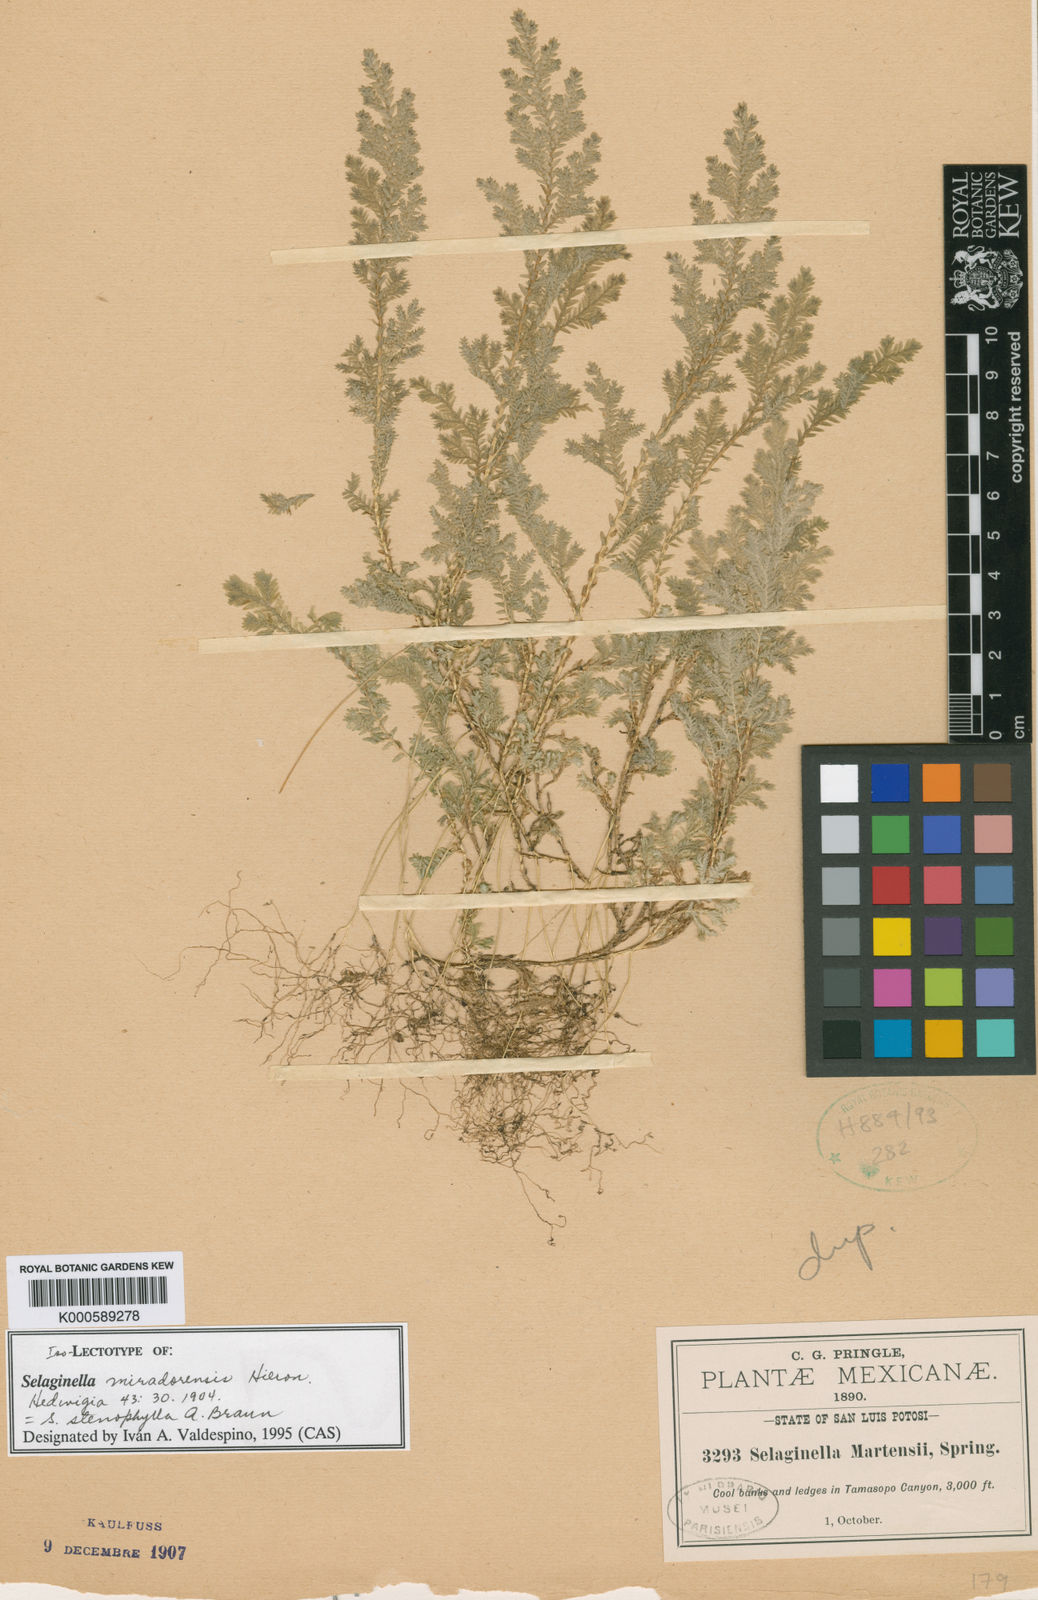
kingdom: Plantae
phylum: Tracheophyta
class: Lycopodiopsida
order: Selaginellales
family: Selaginellaceae
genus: Selaginella
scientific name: Selaginella stenophylla
